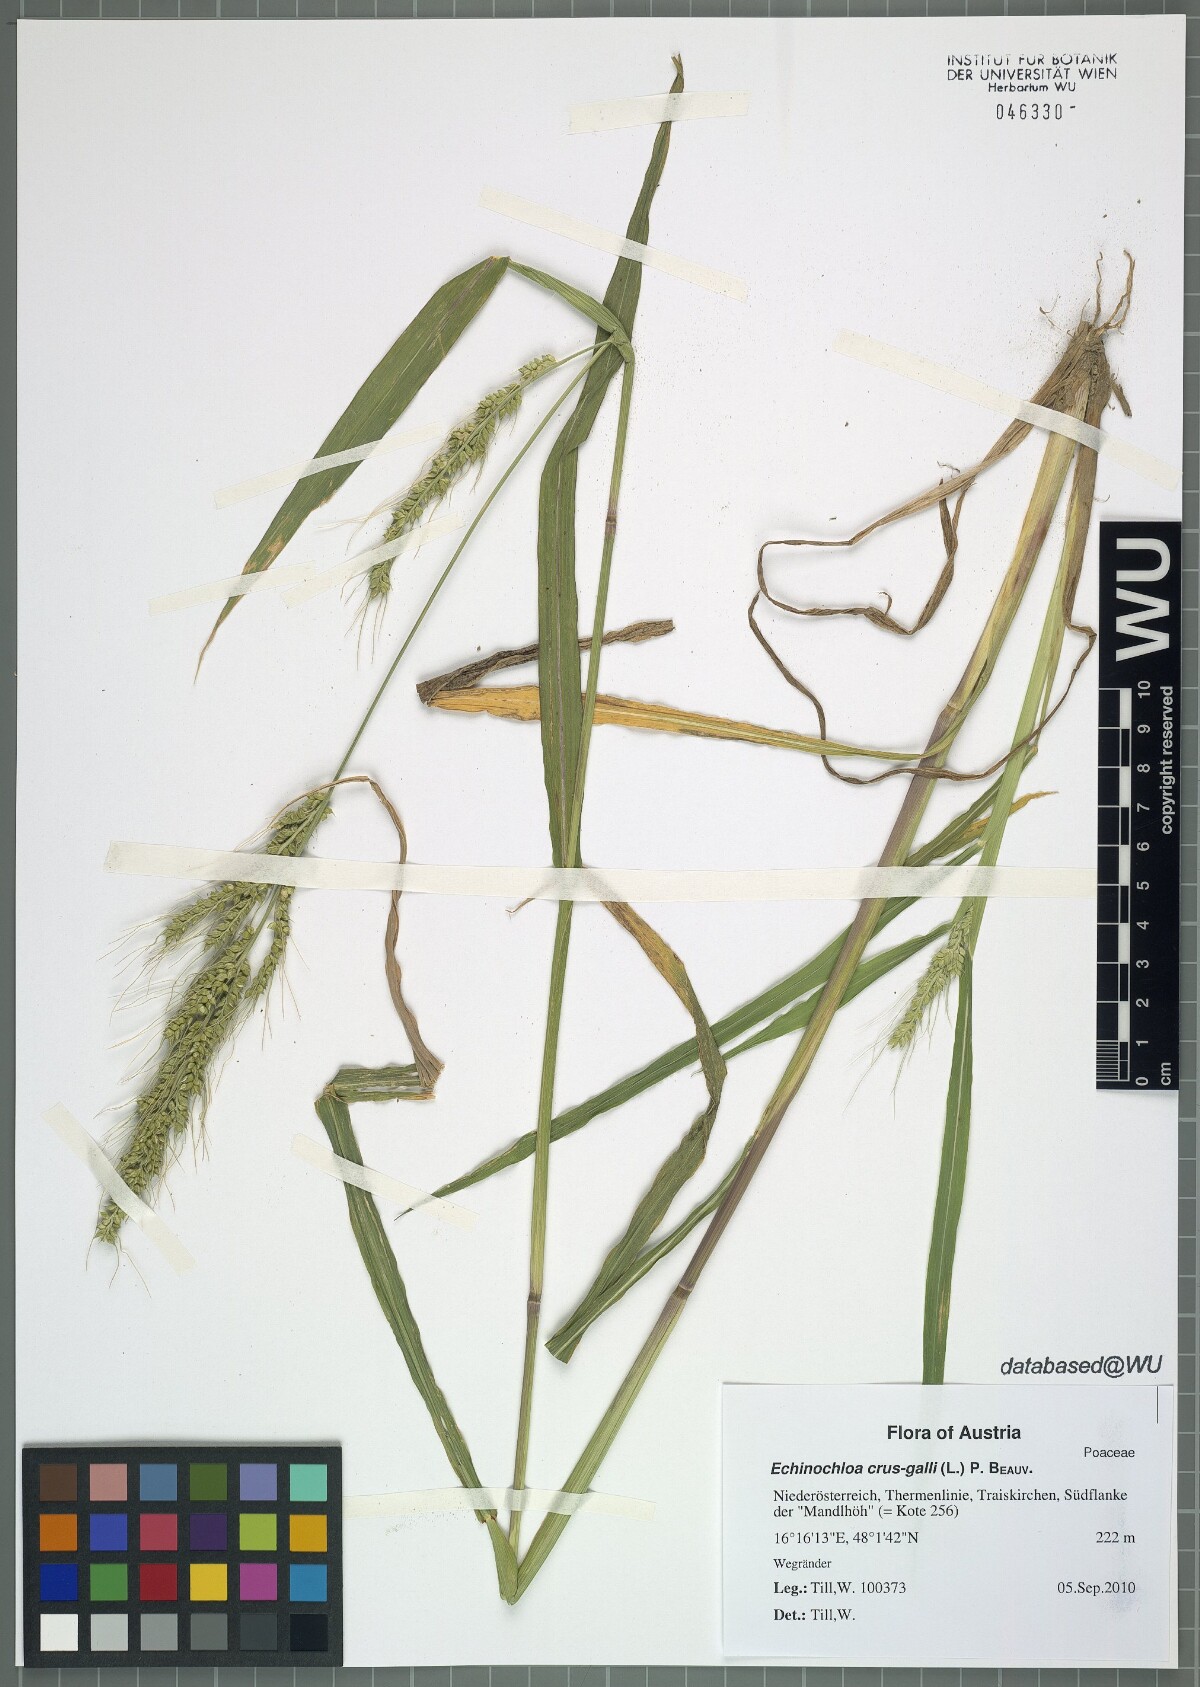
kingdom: Plantae
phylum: Tracheophyta
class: Liliopsida
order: Poales
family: Poaceae
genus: Echinochloa
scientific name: Echinochloa crus-galli
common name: Cockspur
